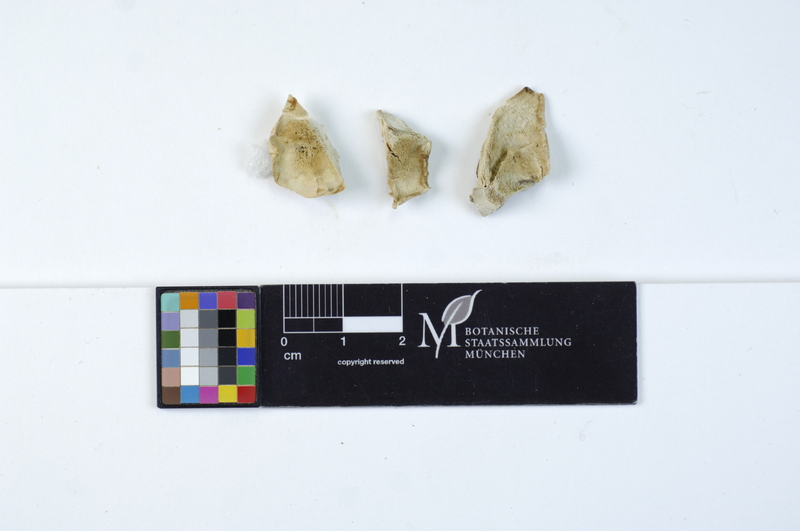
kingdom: Plantae
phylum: Tracheophyta
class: Magnoliopsida
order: Fagales
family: Fagaceae
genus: Quercus
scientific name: Quercus
